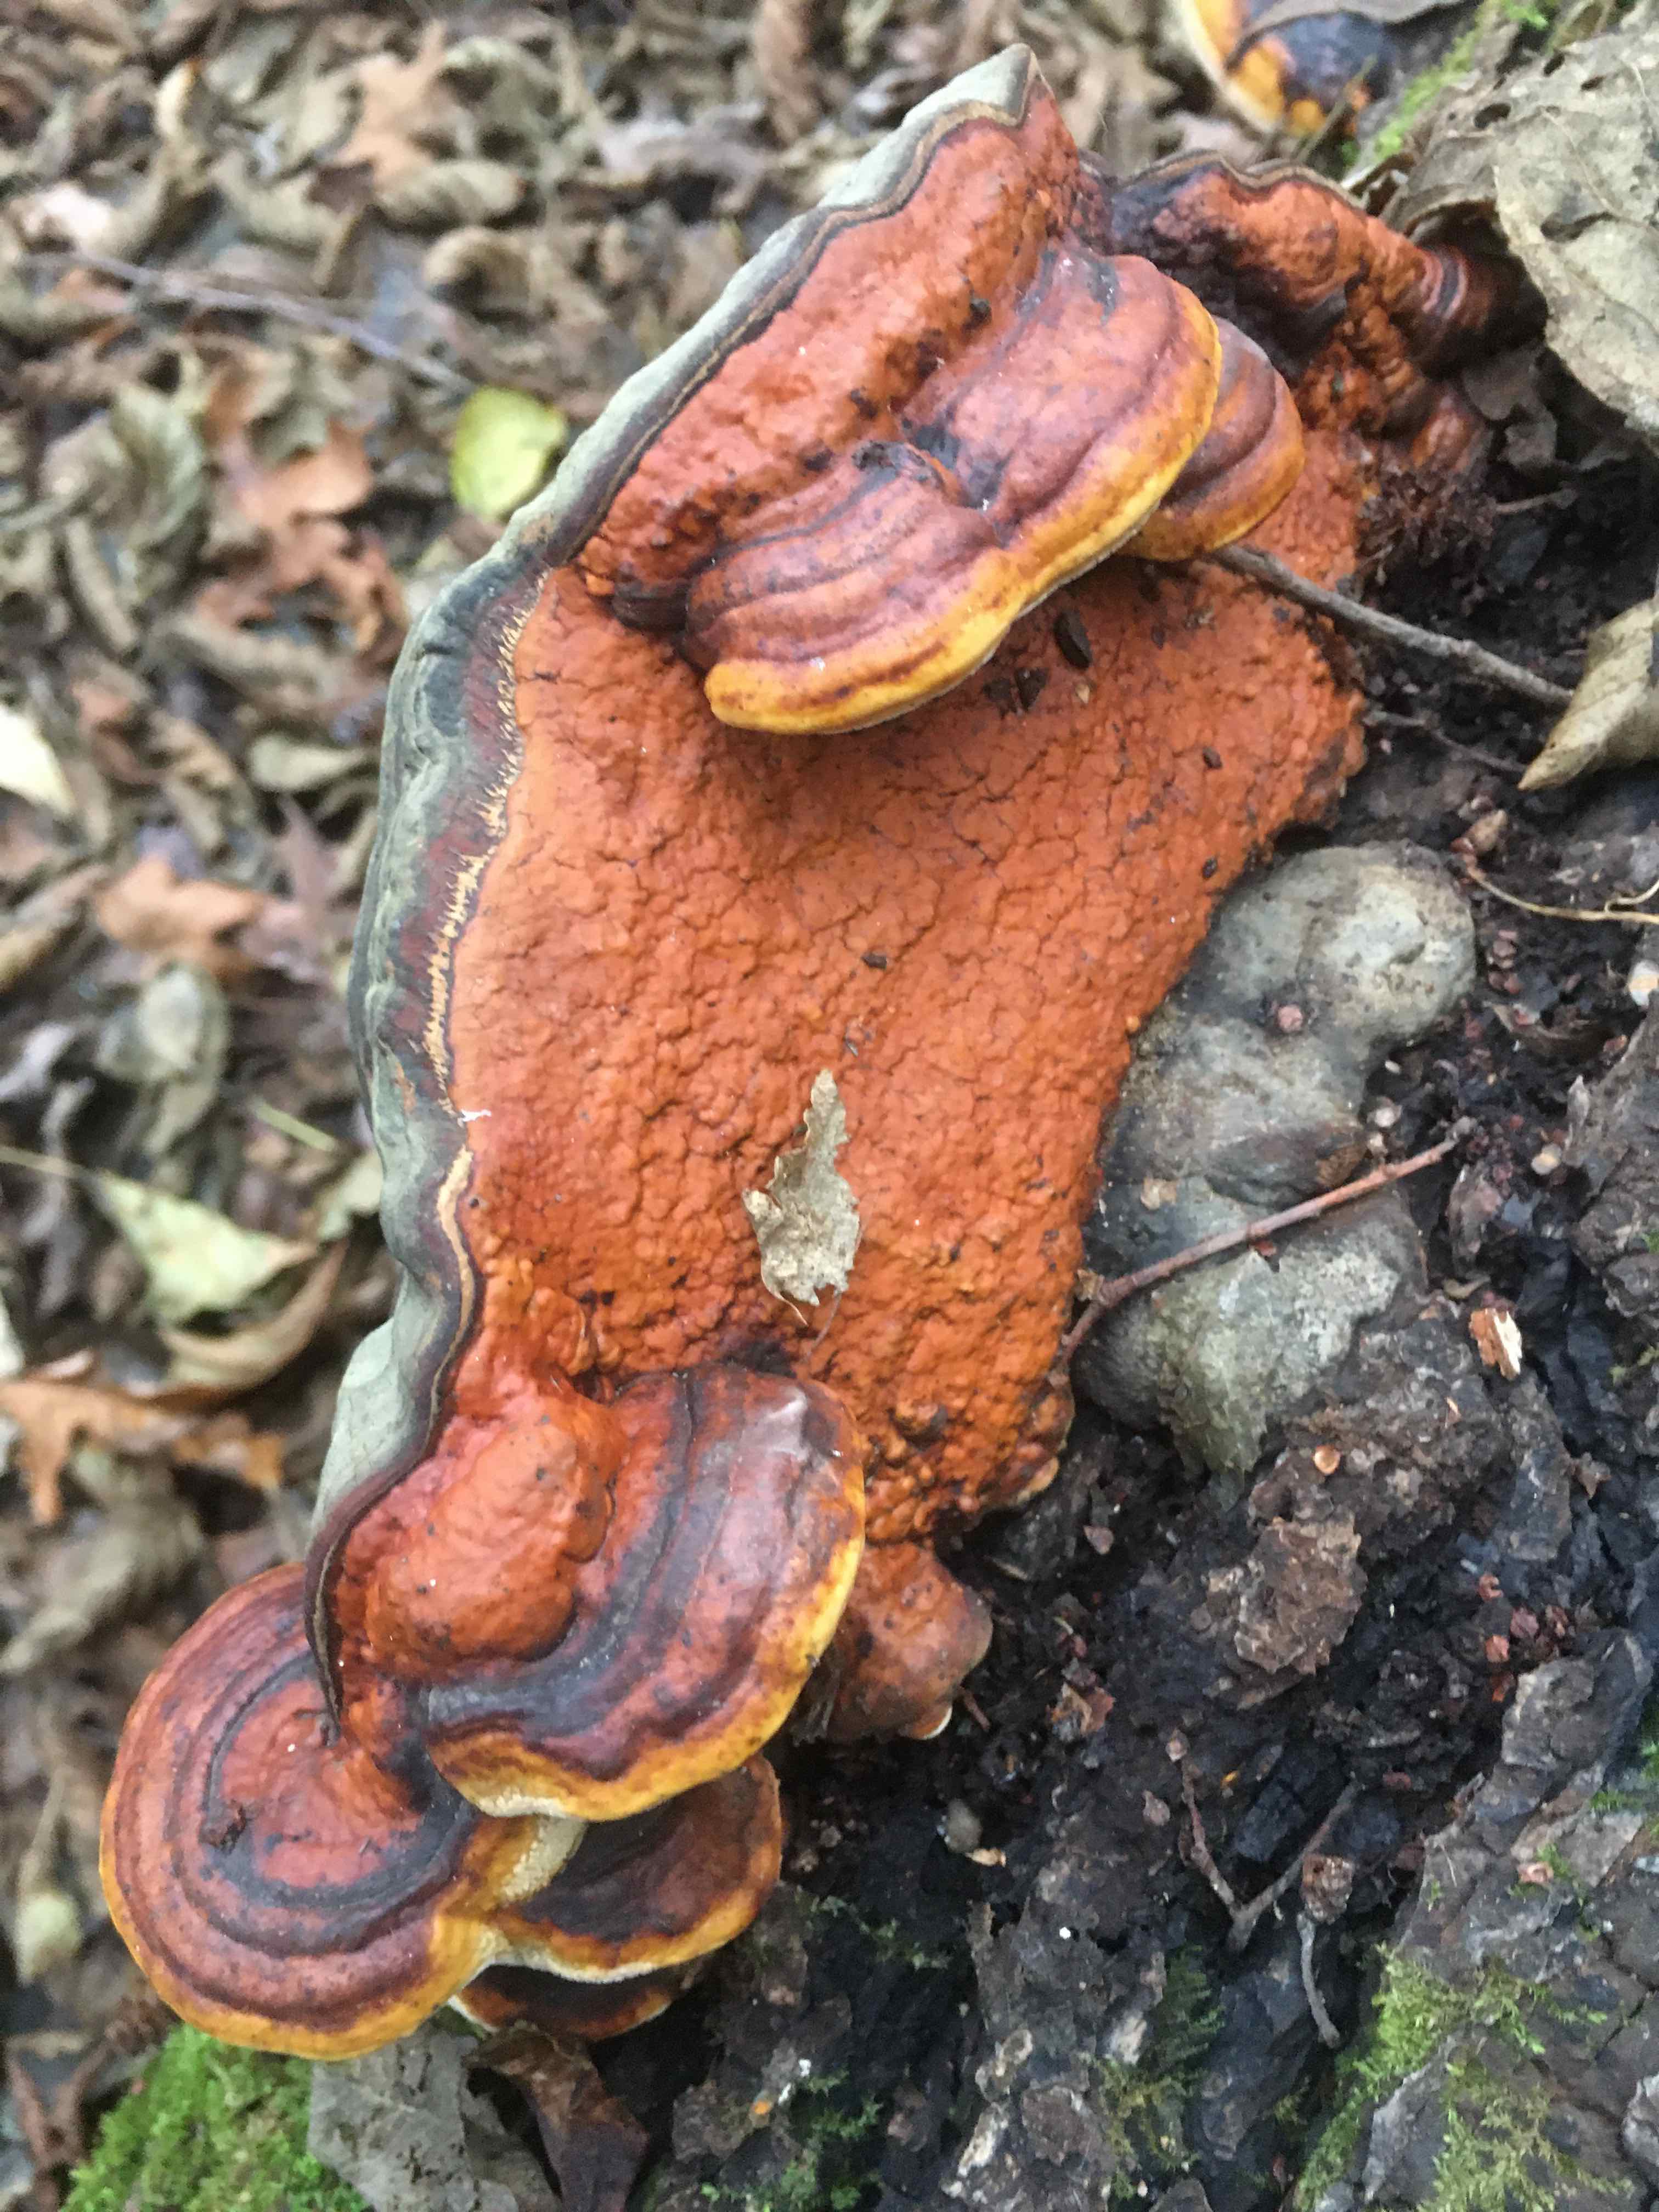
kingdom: Fungi
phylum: Basidiomycota
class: Agaricomycetes
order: Polyporales
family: Fomitopsidaceae
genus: Fomitopsis
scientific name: Fomitopsis pinicola
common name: randbæltet hovporesvamp
